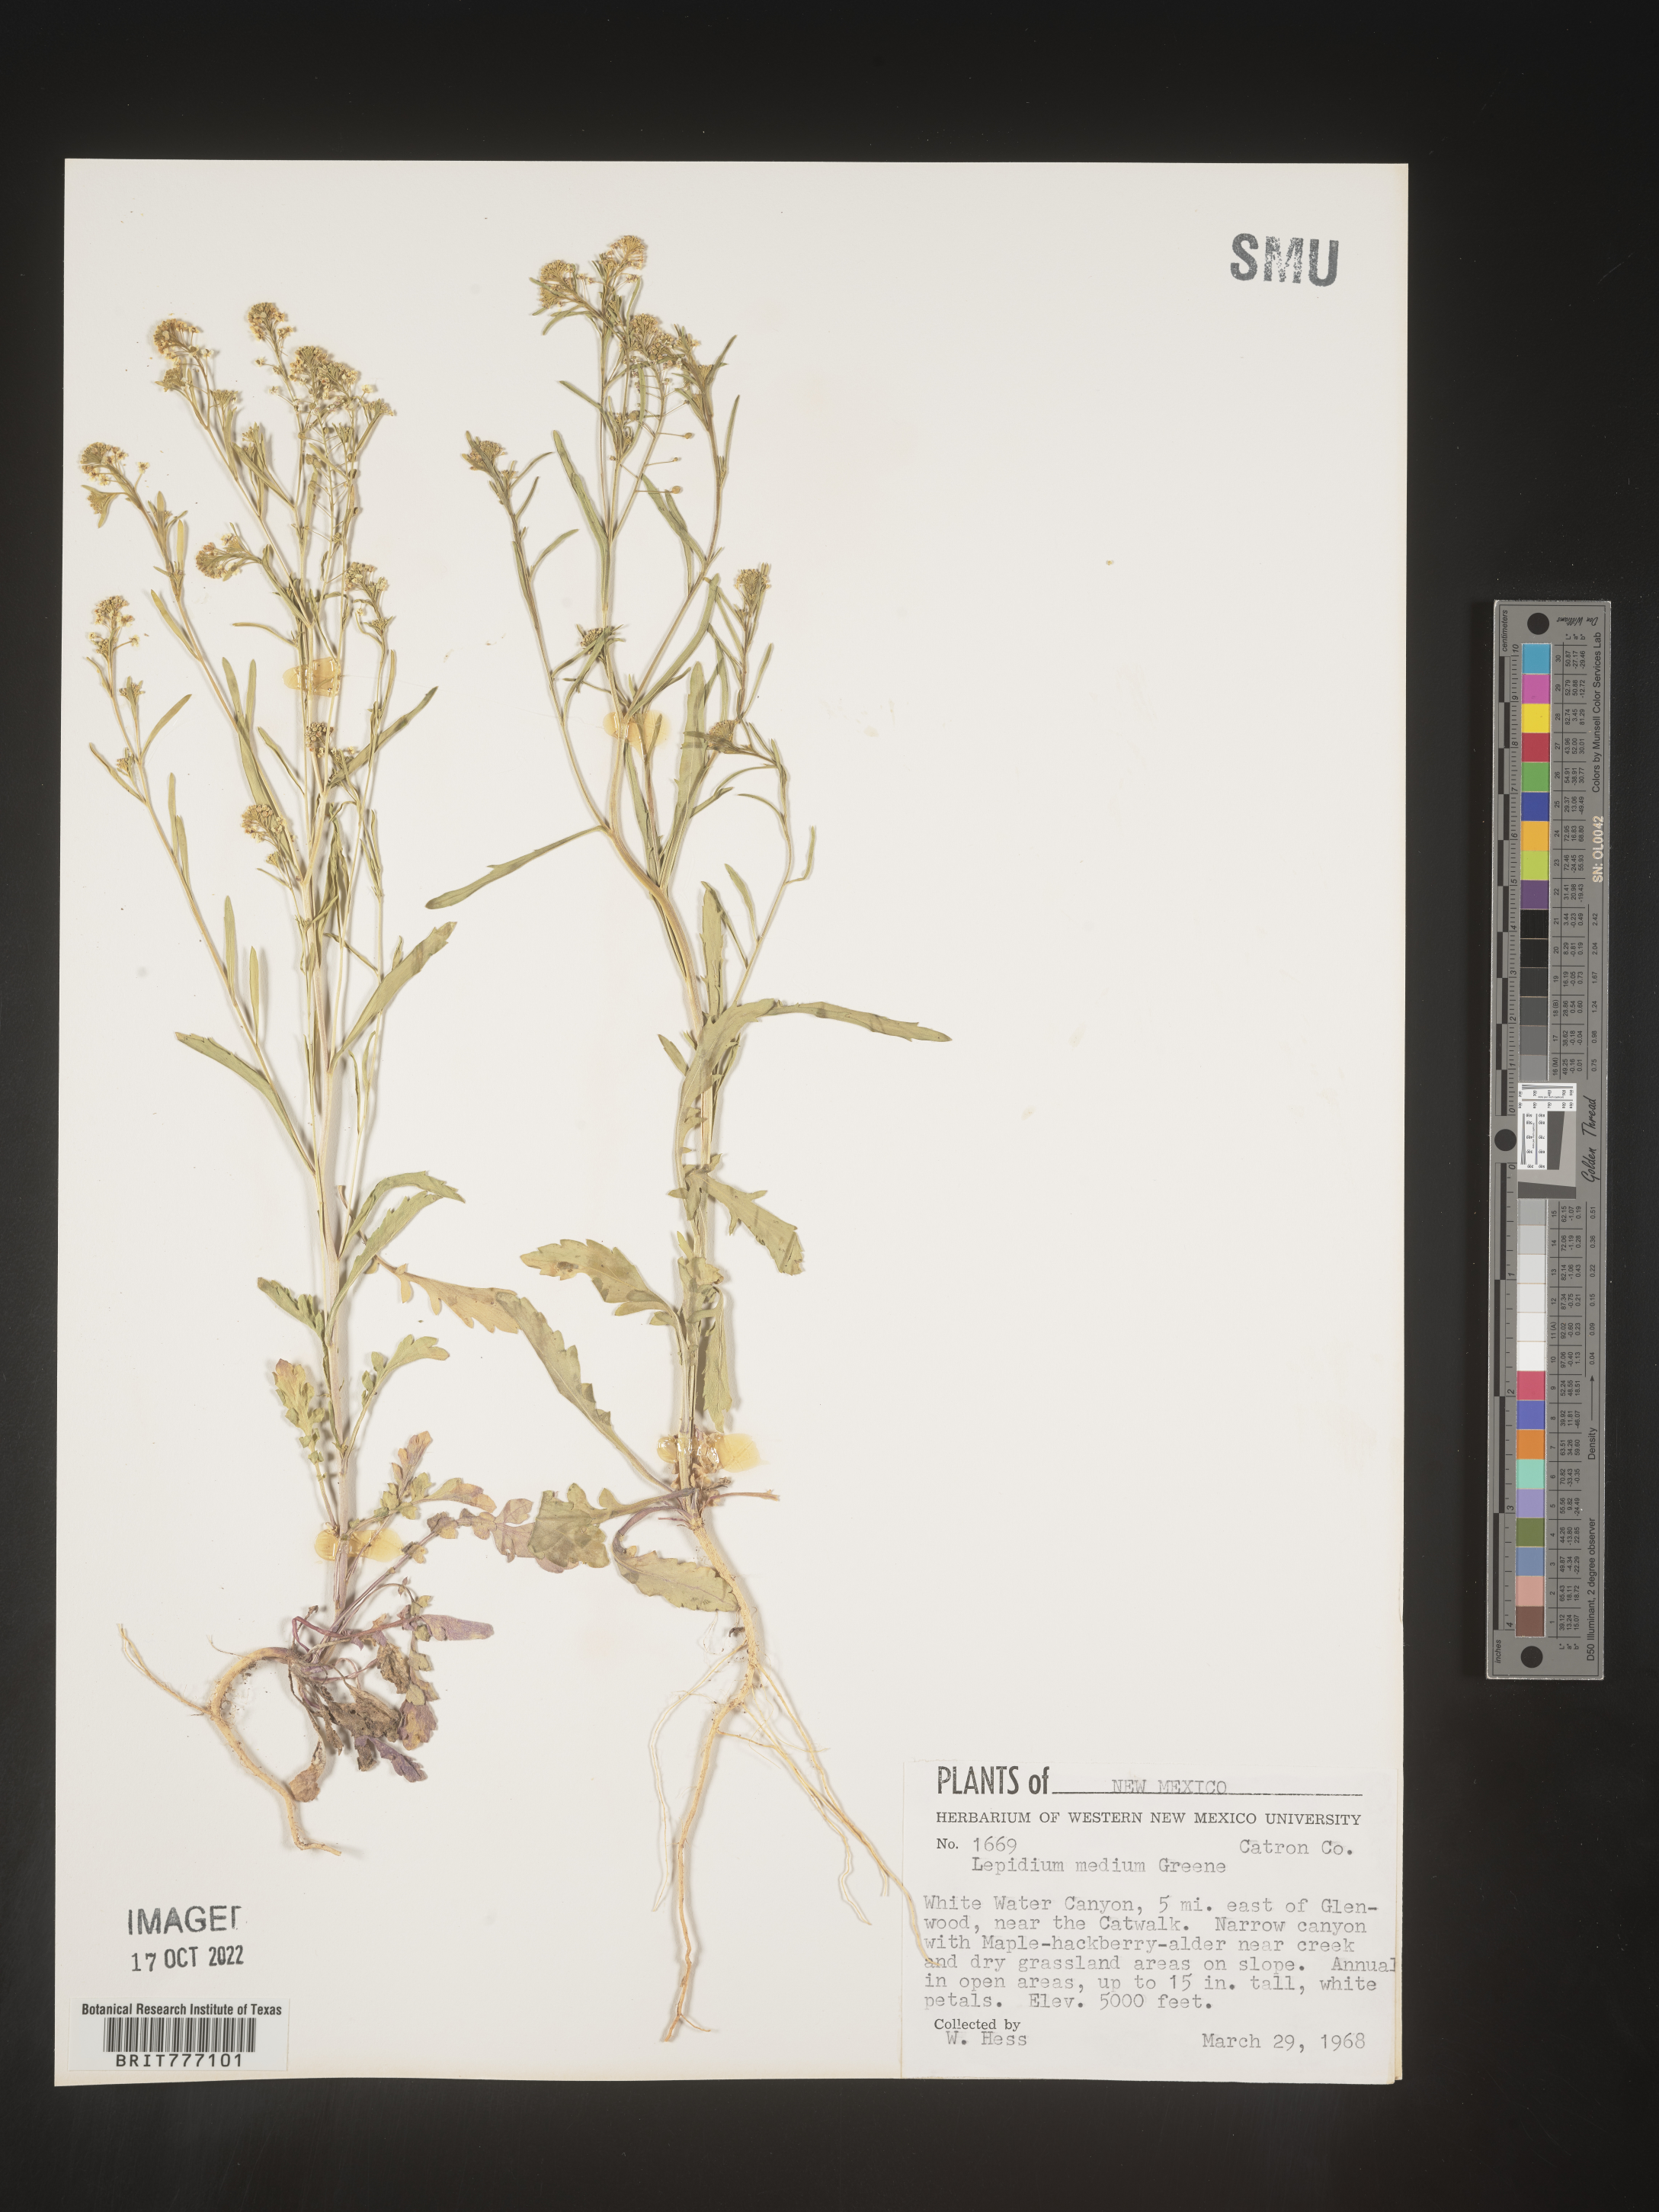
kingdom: Plantae
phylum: Tracheophyta
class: Magnoliopsida
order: Brassicales
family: Brassicaceae
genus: Lepidium
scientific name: Lepidium
